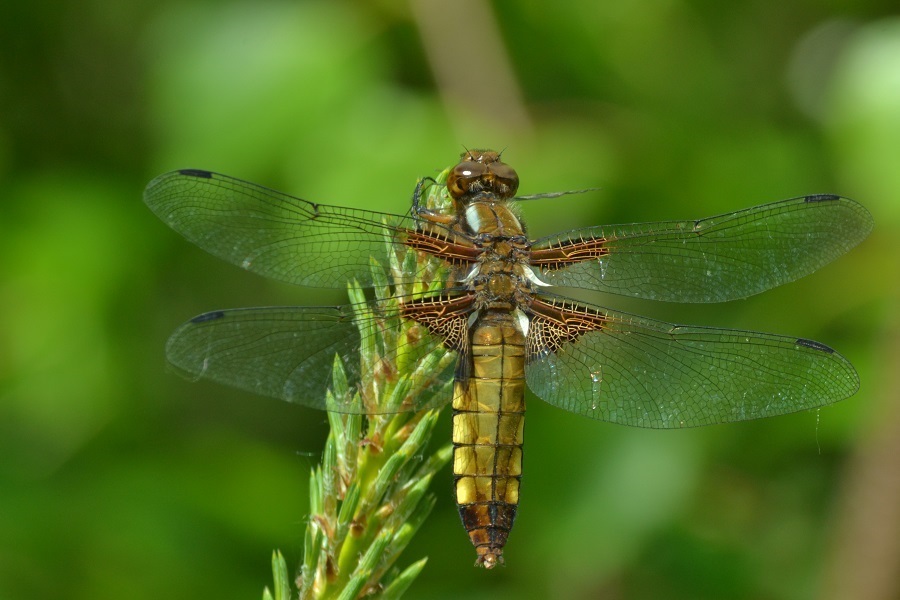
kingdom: Animalia
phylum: Arthropoda
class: Insecta
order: Odonata
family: Libellulidae
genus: Libellula
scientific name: Libellula depressa
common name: Broad-bodied chaser
